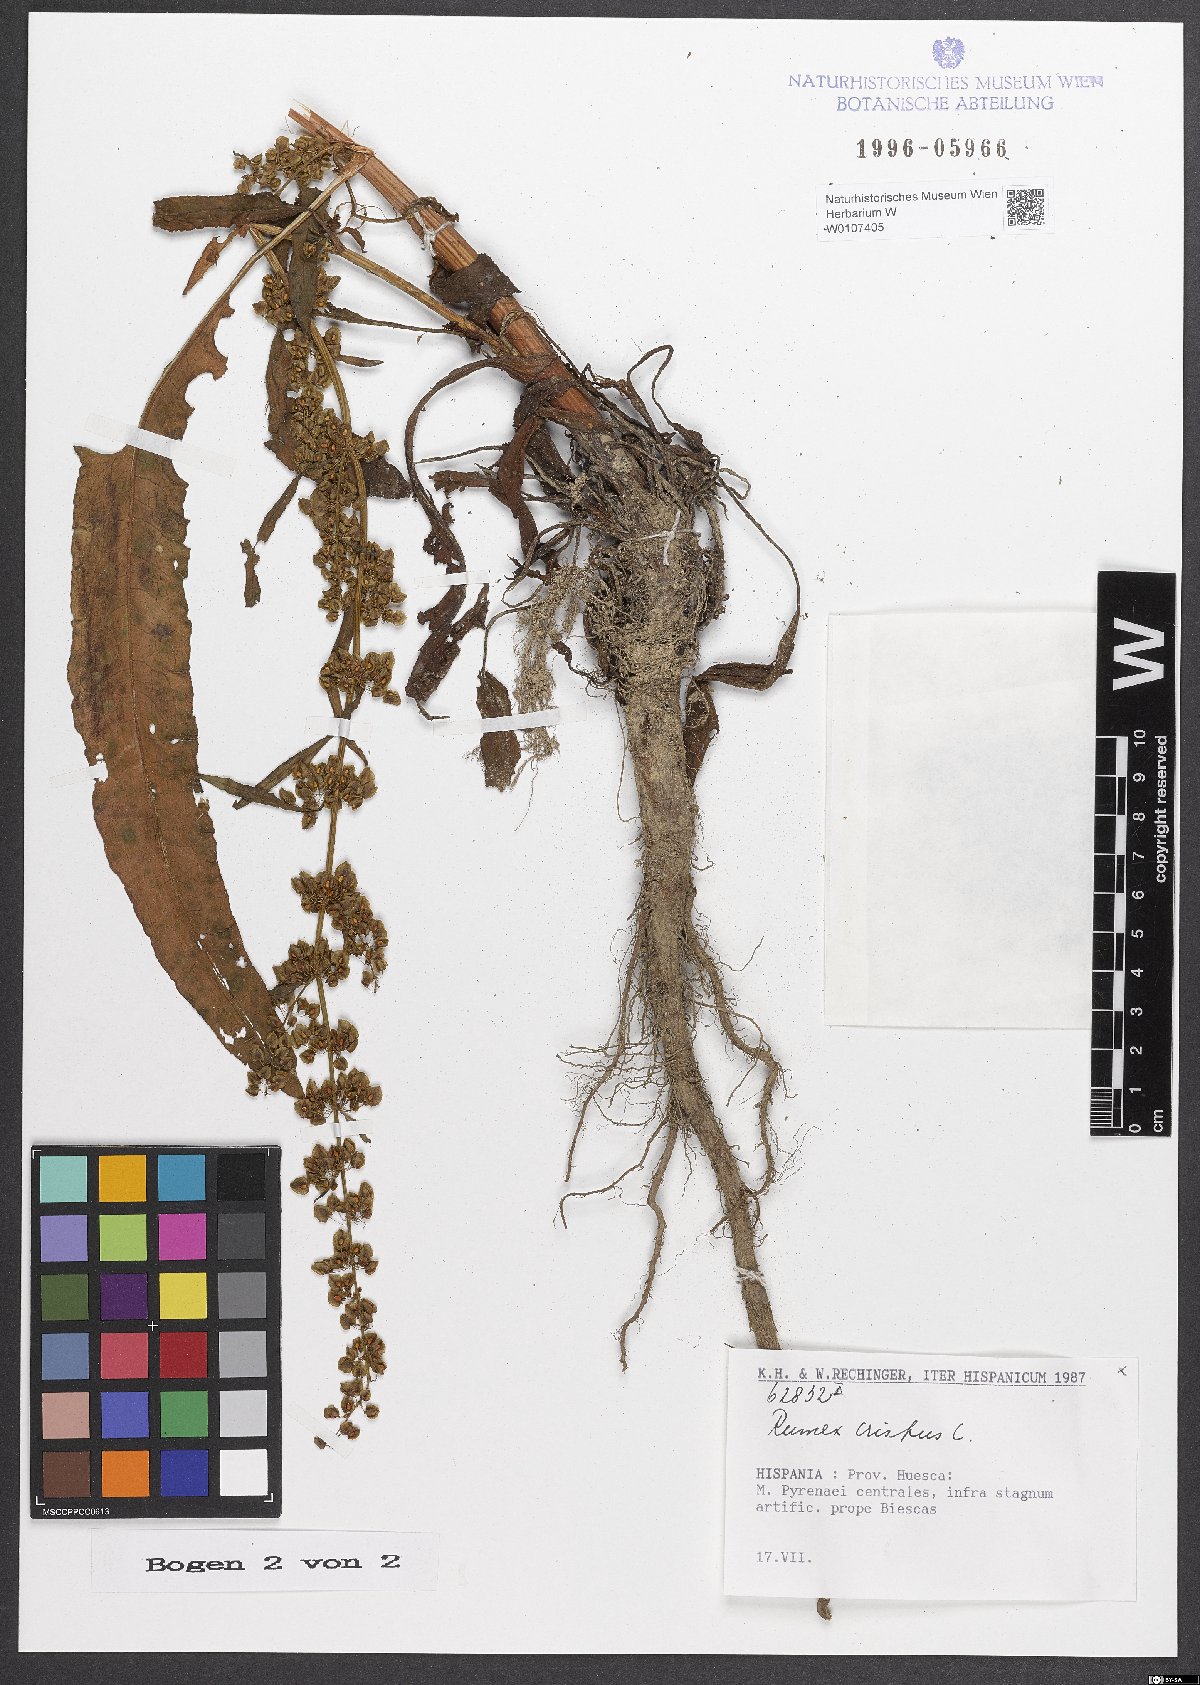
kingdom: Plantae
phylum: Tracheophyta
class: Magnoliopsida
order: Caryophyllales
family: Polygonaceae
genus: Rumex
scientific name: Rumex crispus
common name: Curled dock
